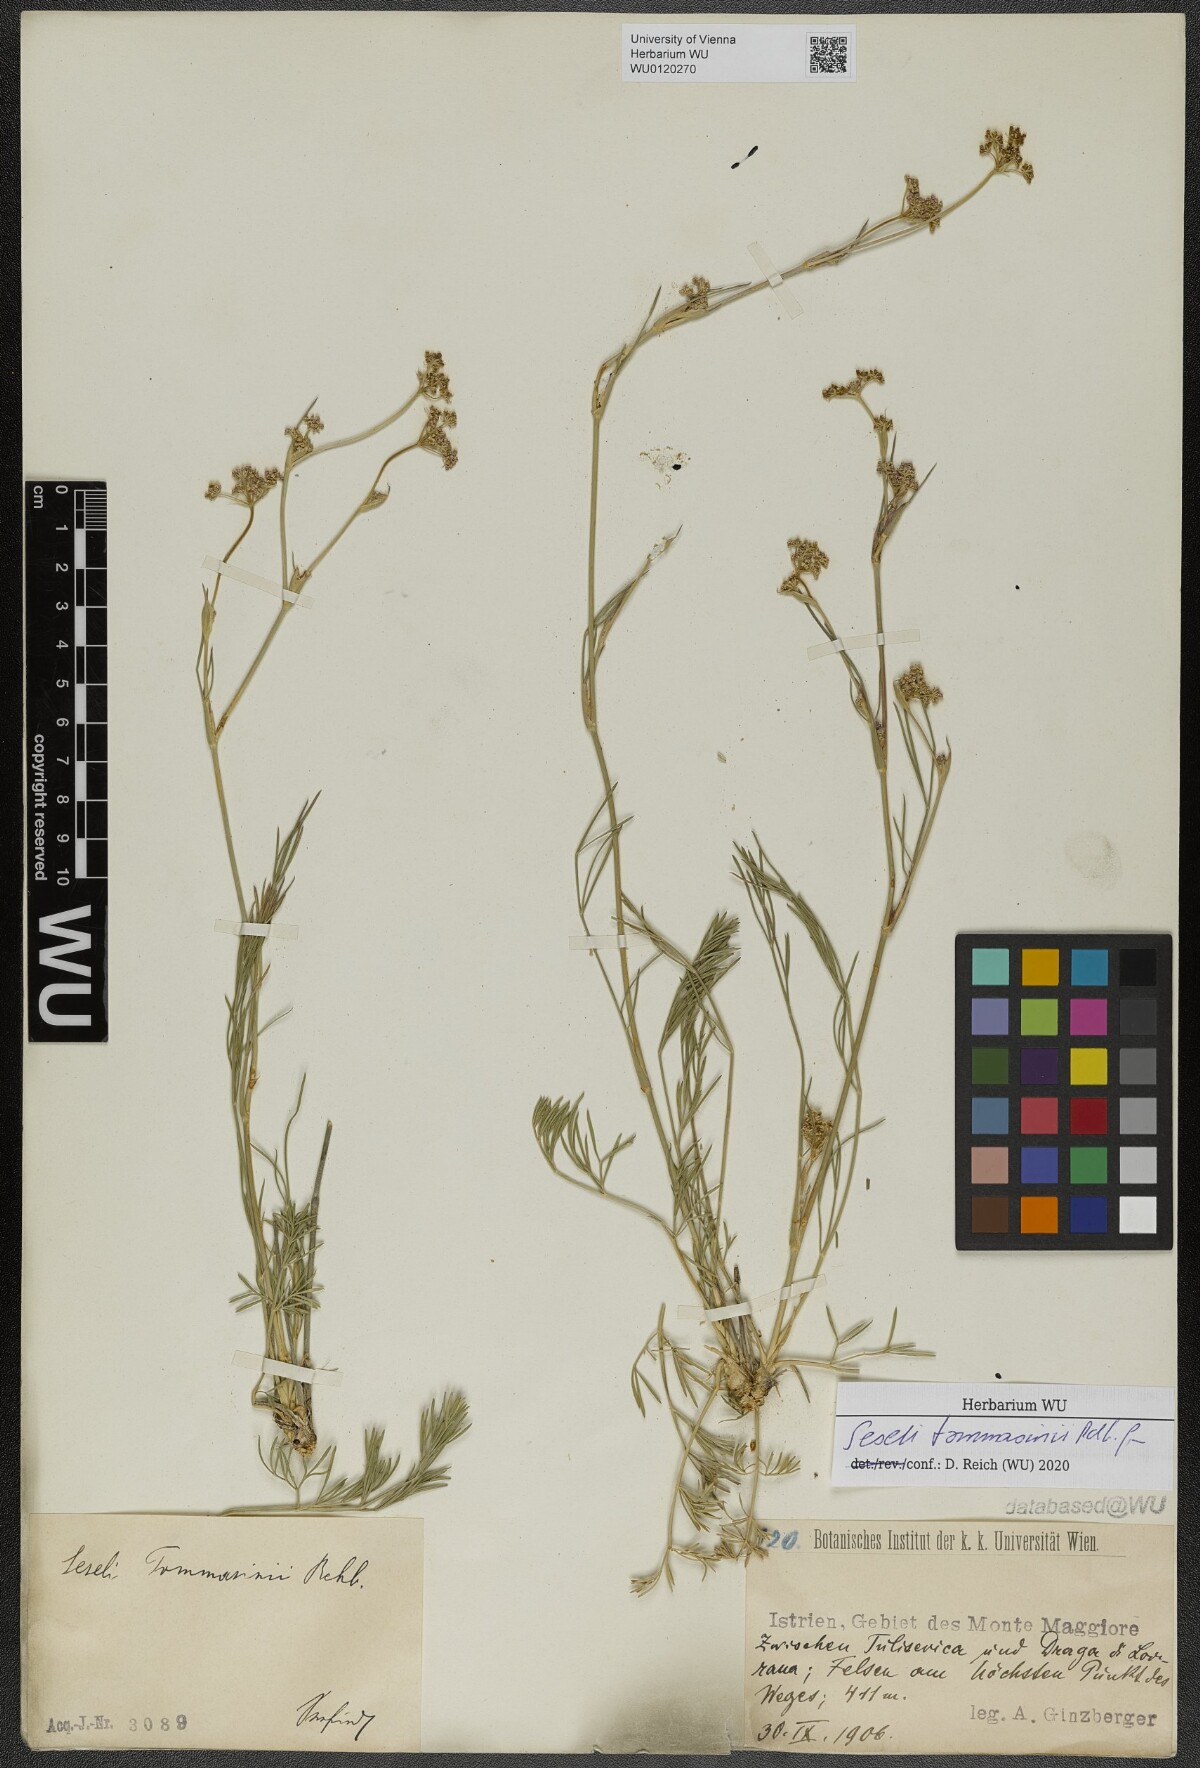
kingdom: Plantae
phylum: Tracheophyta
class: Magnoliopsida
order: Apiales
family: Apiaceae
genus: Seseli
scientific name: Seseli montanum
